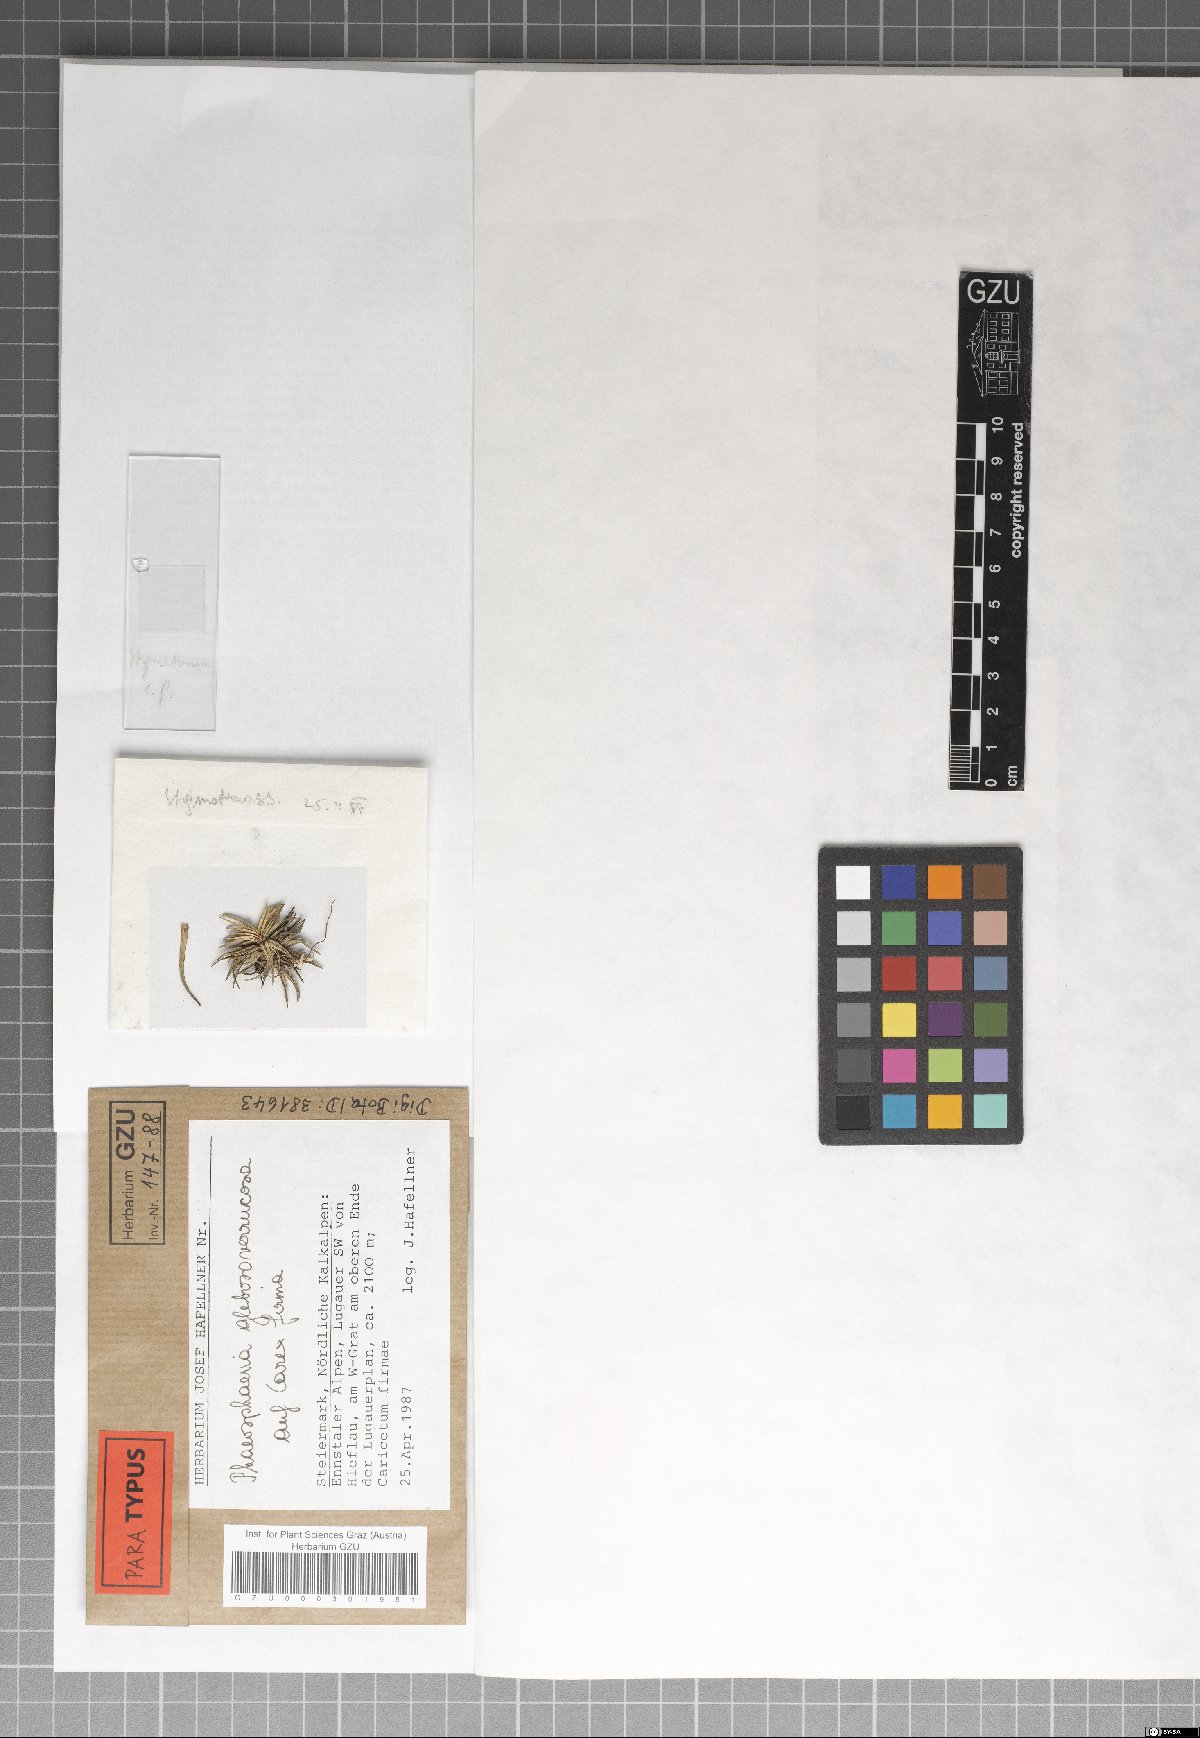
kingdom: Fungi
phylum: Ascomycota
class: Dothideomycetes
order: Pleosporales
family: Phaeosphaeriaceae
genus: Phaeosphaeria
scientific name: Phaeosphaeria glebosoverrucosa
